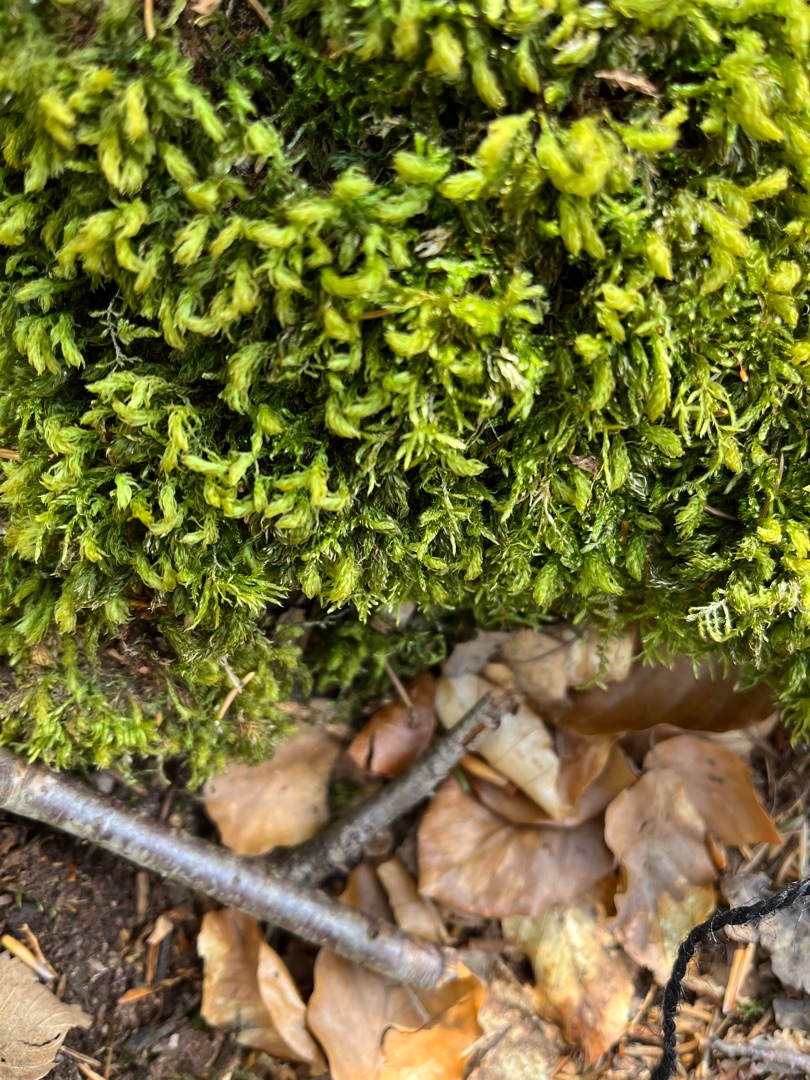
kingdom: Plantae
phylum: Bryophyta
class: Bryopsida
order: Bryales
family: Mniaceae
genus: Mnium
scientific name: Mnium hornum
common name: Brunfiltet stjernemos
